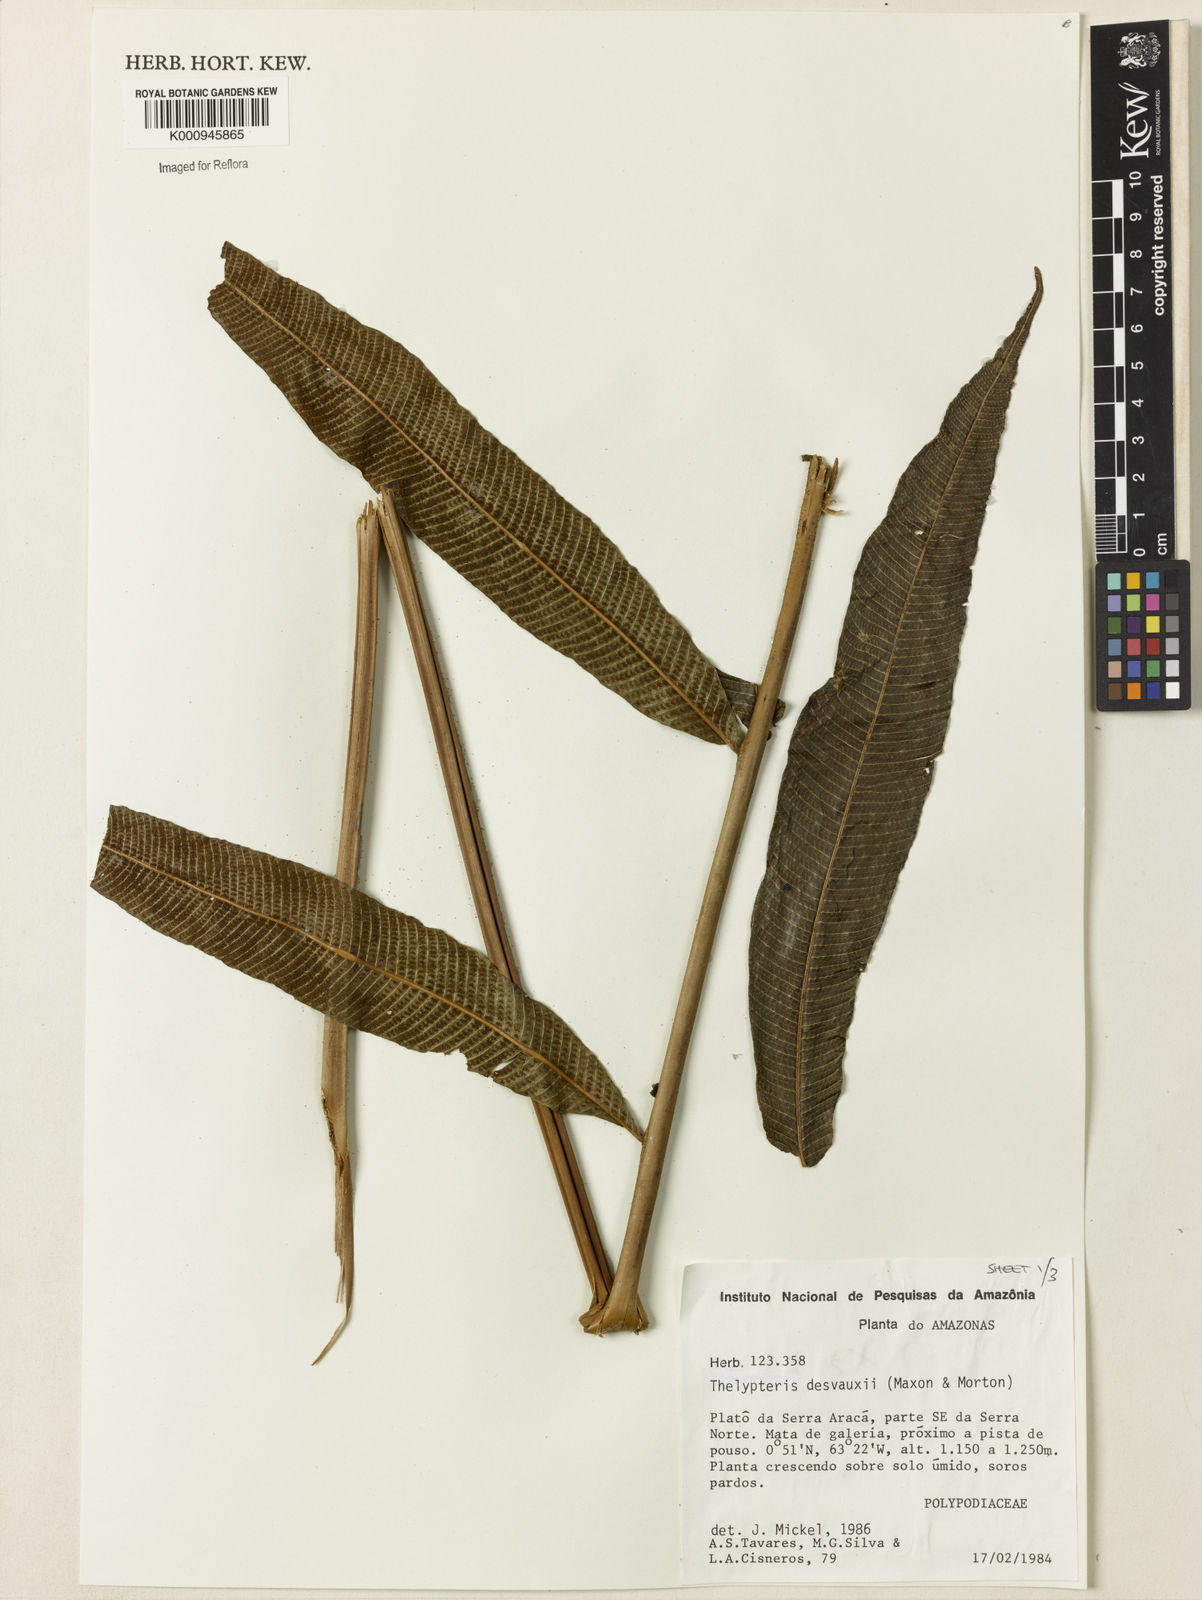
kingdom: Plantae
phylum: Tracheophyta
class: Polypodiopsida
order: Polypodiales
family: Thelypteridaceae
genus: Meniscium
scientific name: Meniscium arborescens
